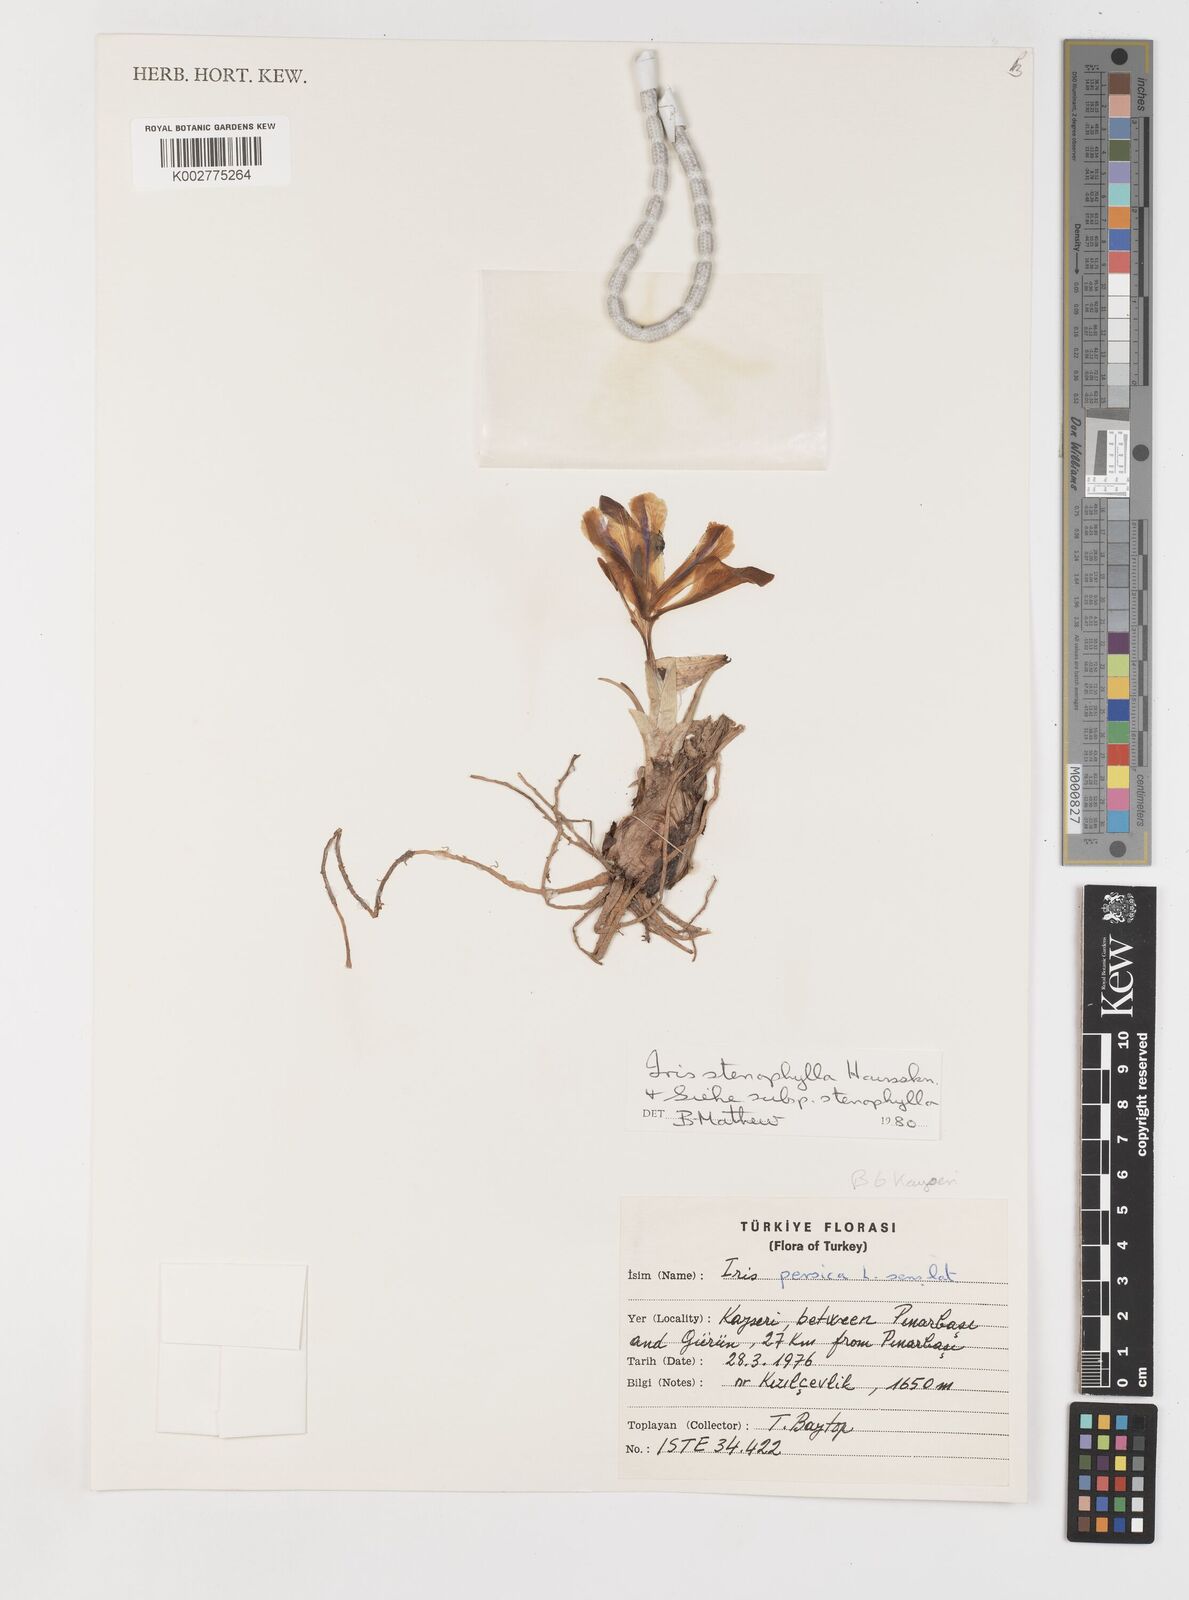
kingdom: Plantae
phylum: Tracheophyta
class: Liliopsida
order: Asparagales
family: Iridaceae
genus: Iris
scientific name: Iris stenophylla
